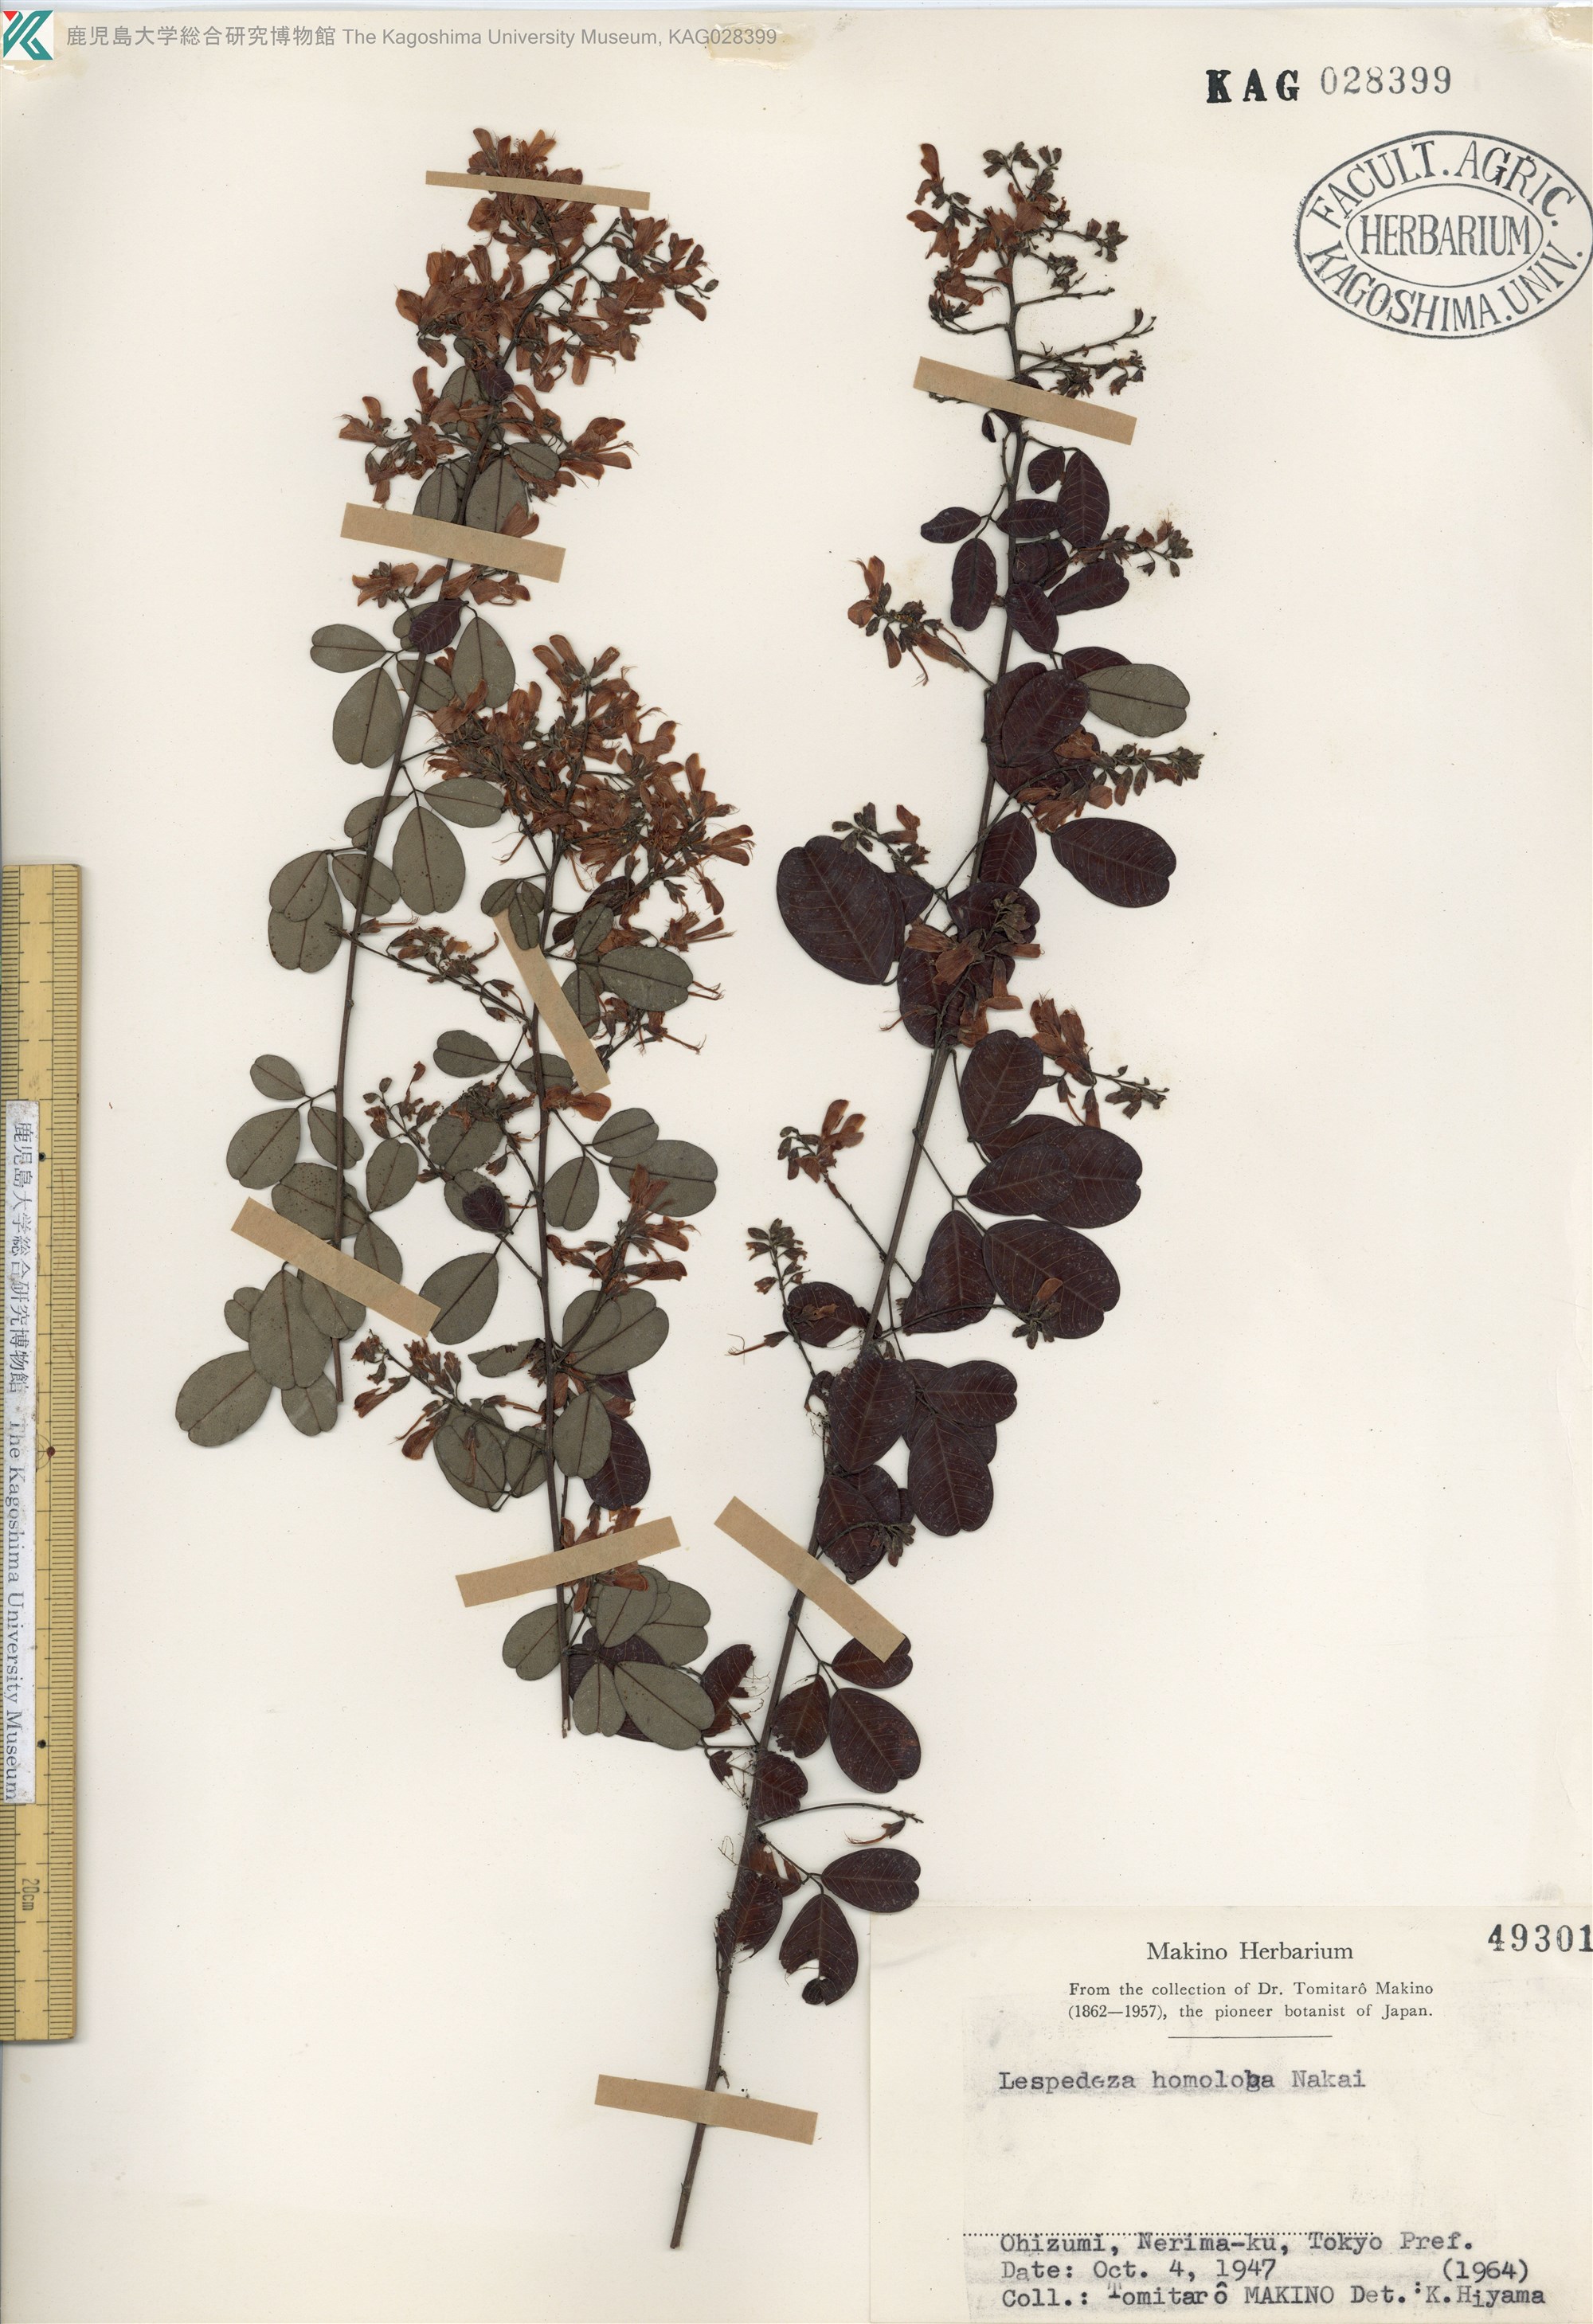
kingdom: Plantae
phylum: Tracheophyta
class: Magnoliopsida
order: Fabales
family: Fabaceae
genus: Lespedeza
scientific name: Lespedeza homoloba
